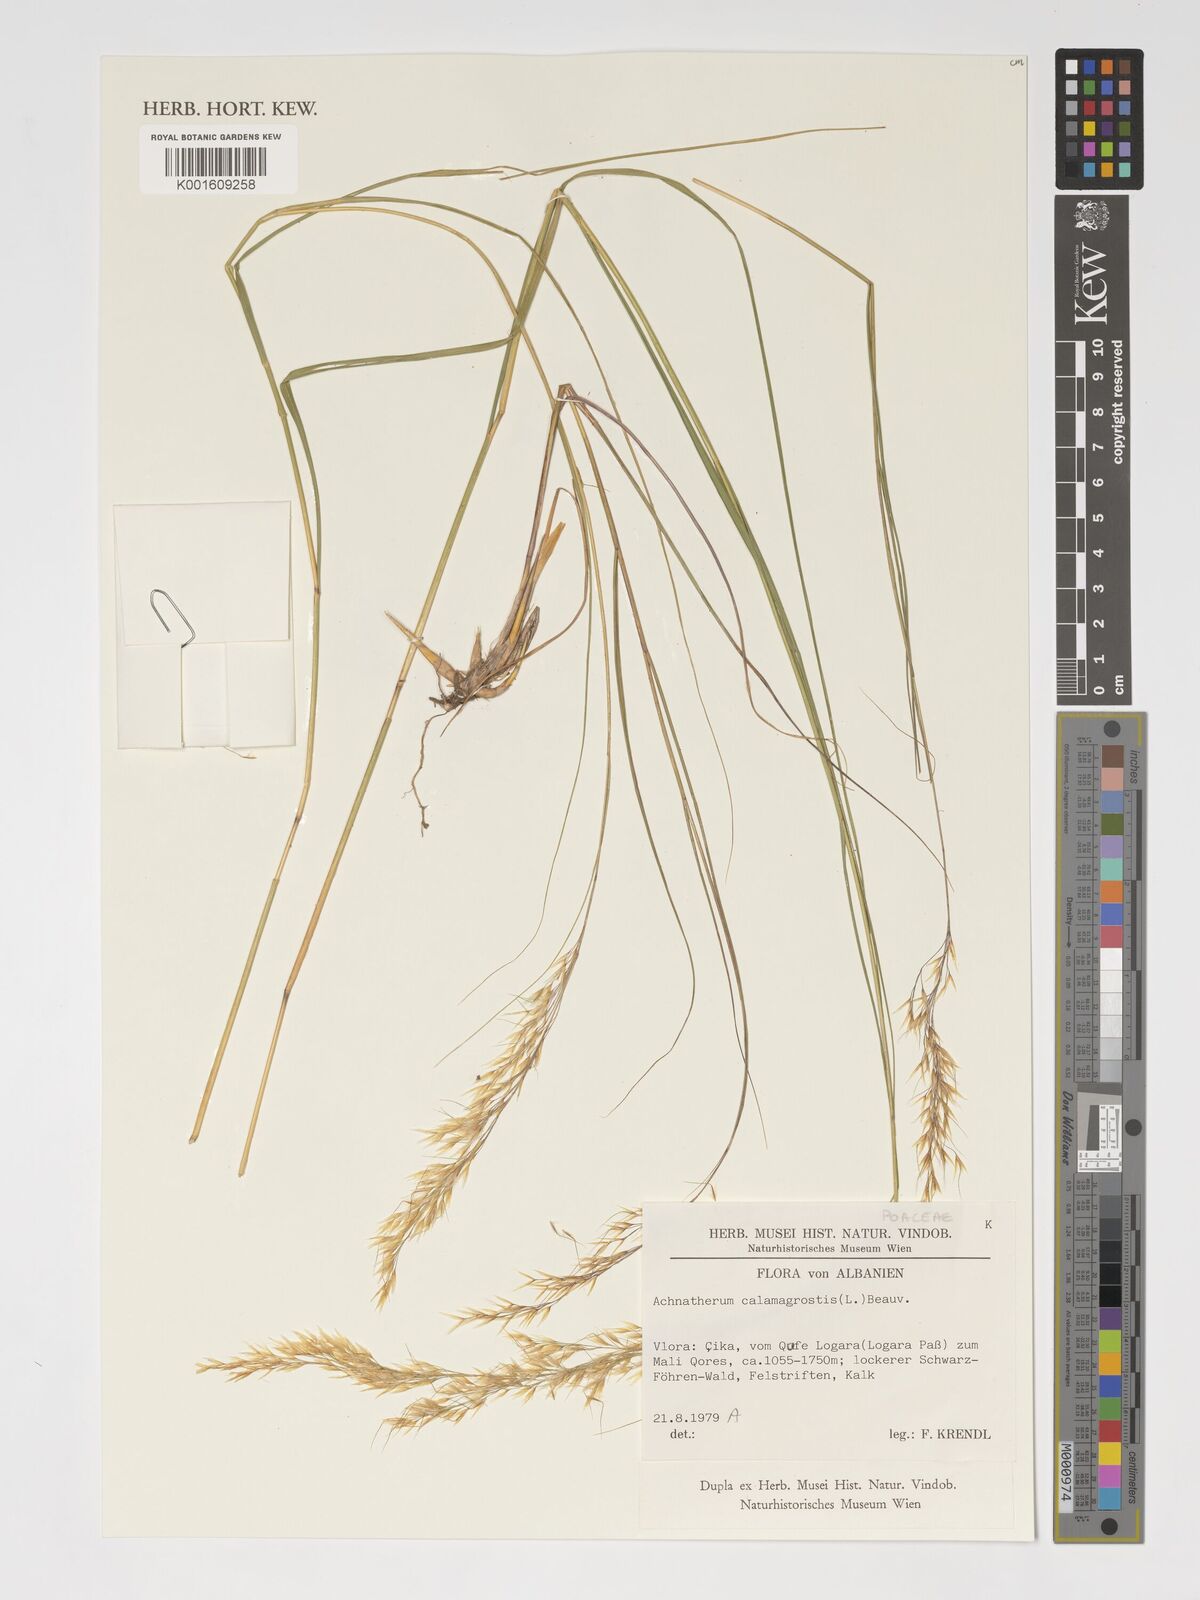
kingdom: Plantae
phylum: Tracheophyta
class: Liliopsida
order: Poales
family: Poaceae
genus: Achnatherum
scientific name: Achnatherum calamagrostis
